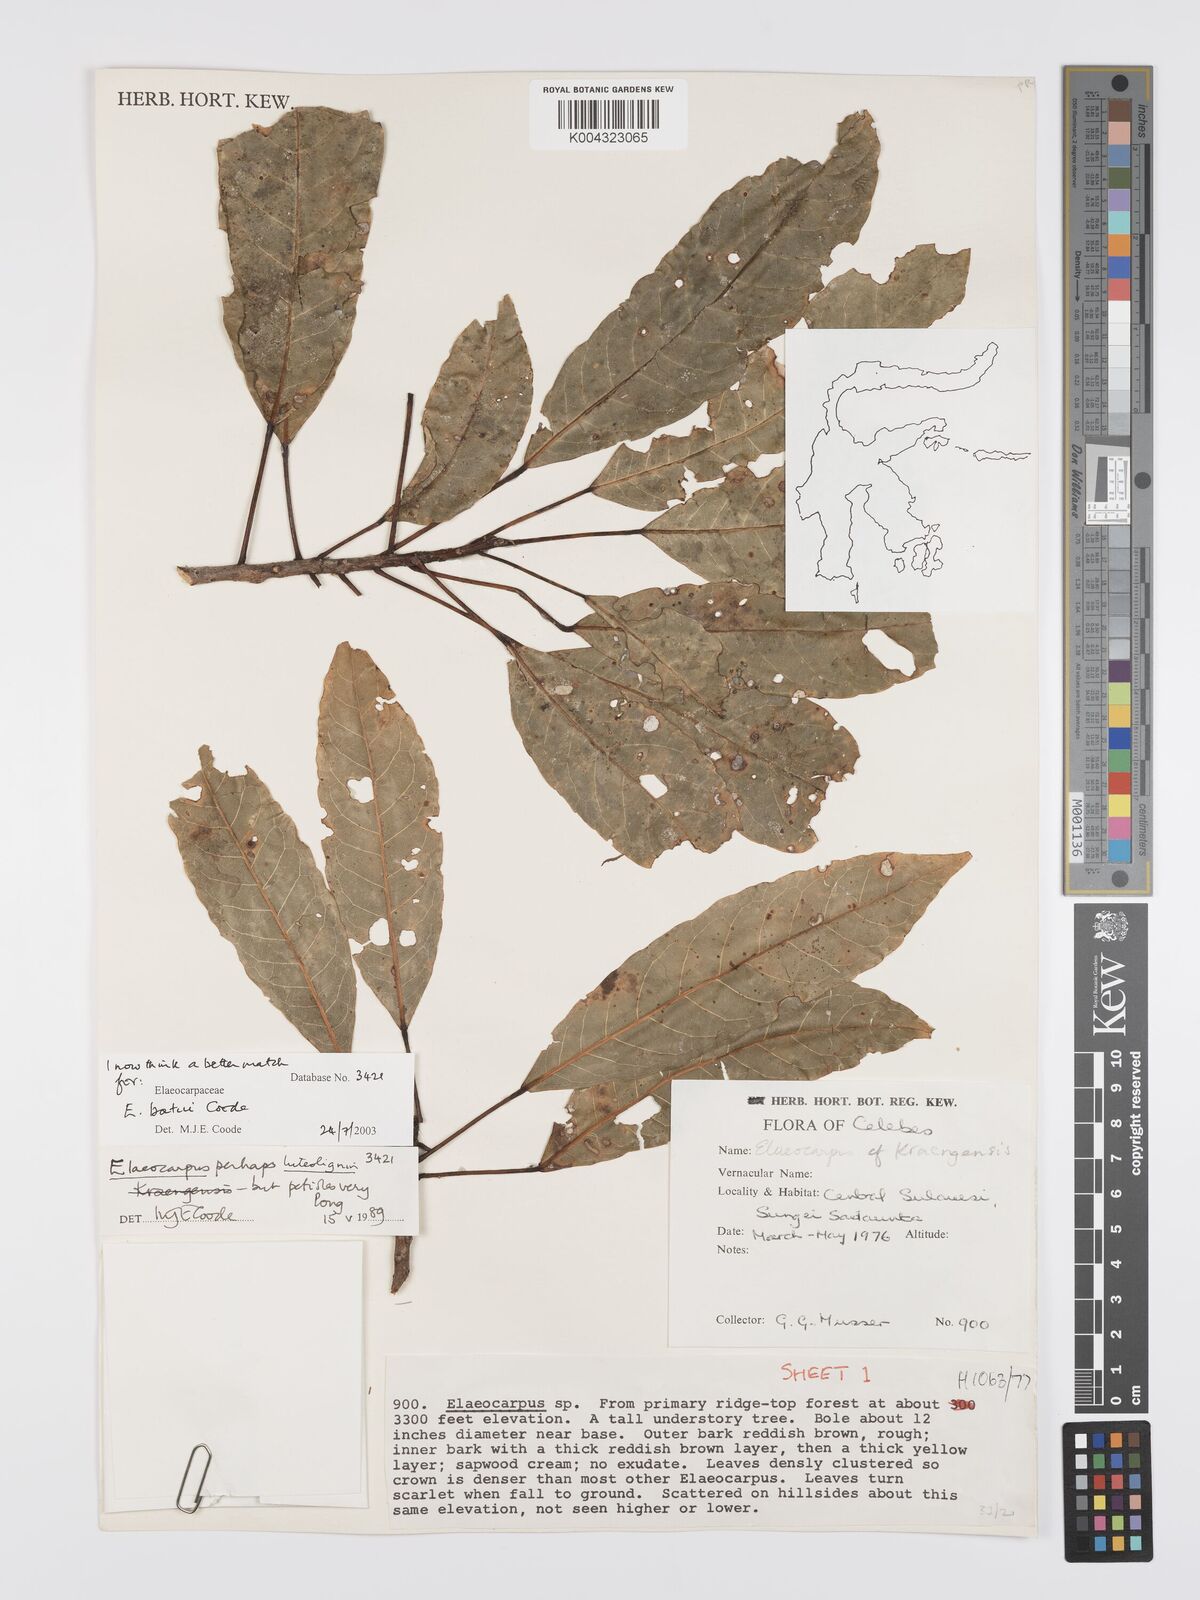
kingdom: Plantae
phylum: Tracheophyta
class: Magnoliopsida
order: Oxalidales
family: Elaeocarpaceae
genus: Elaeocarpus
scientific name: Elaeocarpus batui
